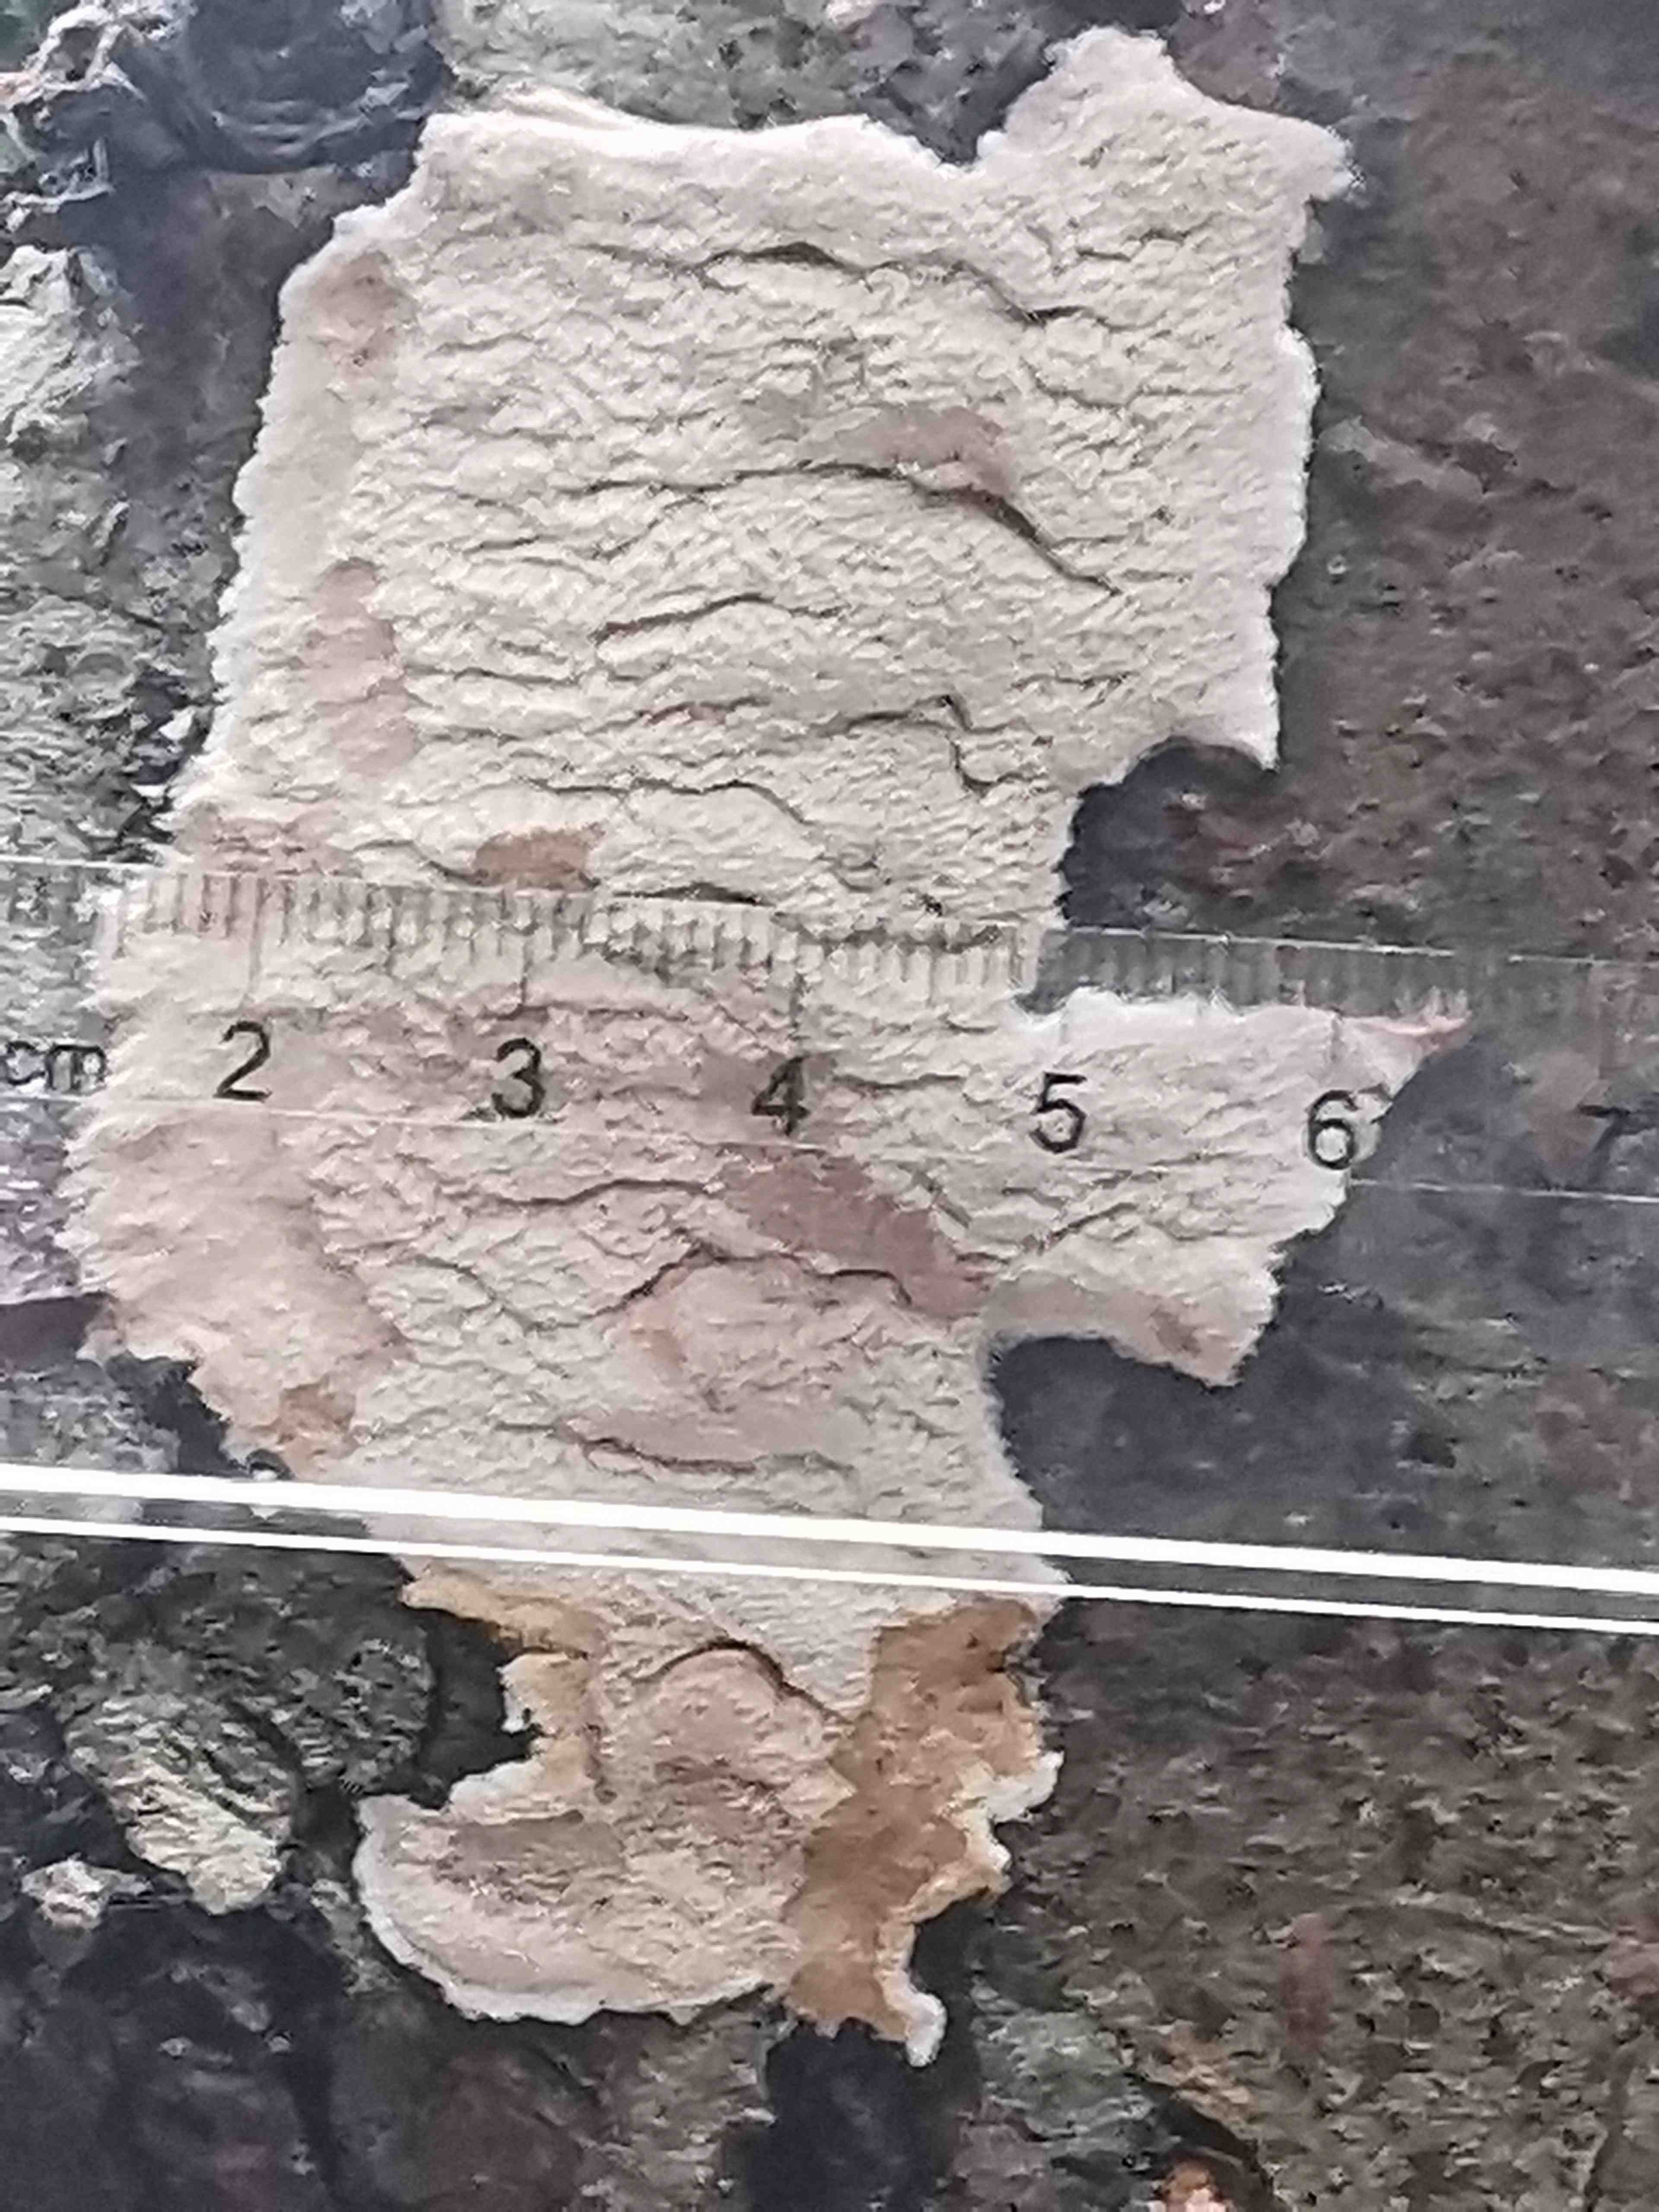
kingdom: Fungi
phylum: Basidiomycota
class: Agaricomycetes
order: Polyporales
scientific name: Polyporales
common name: poresvampordenen
